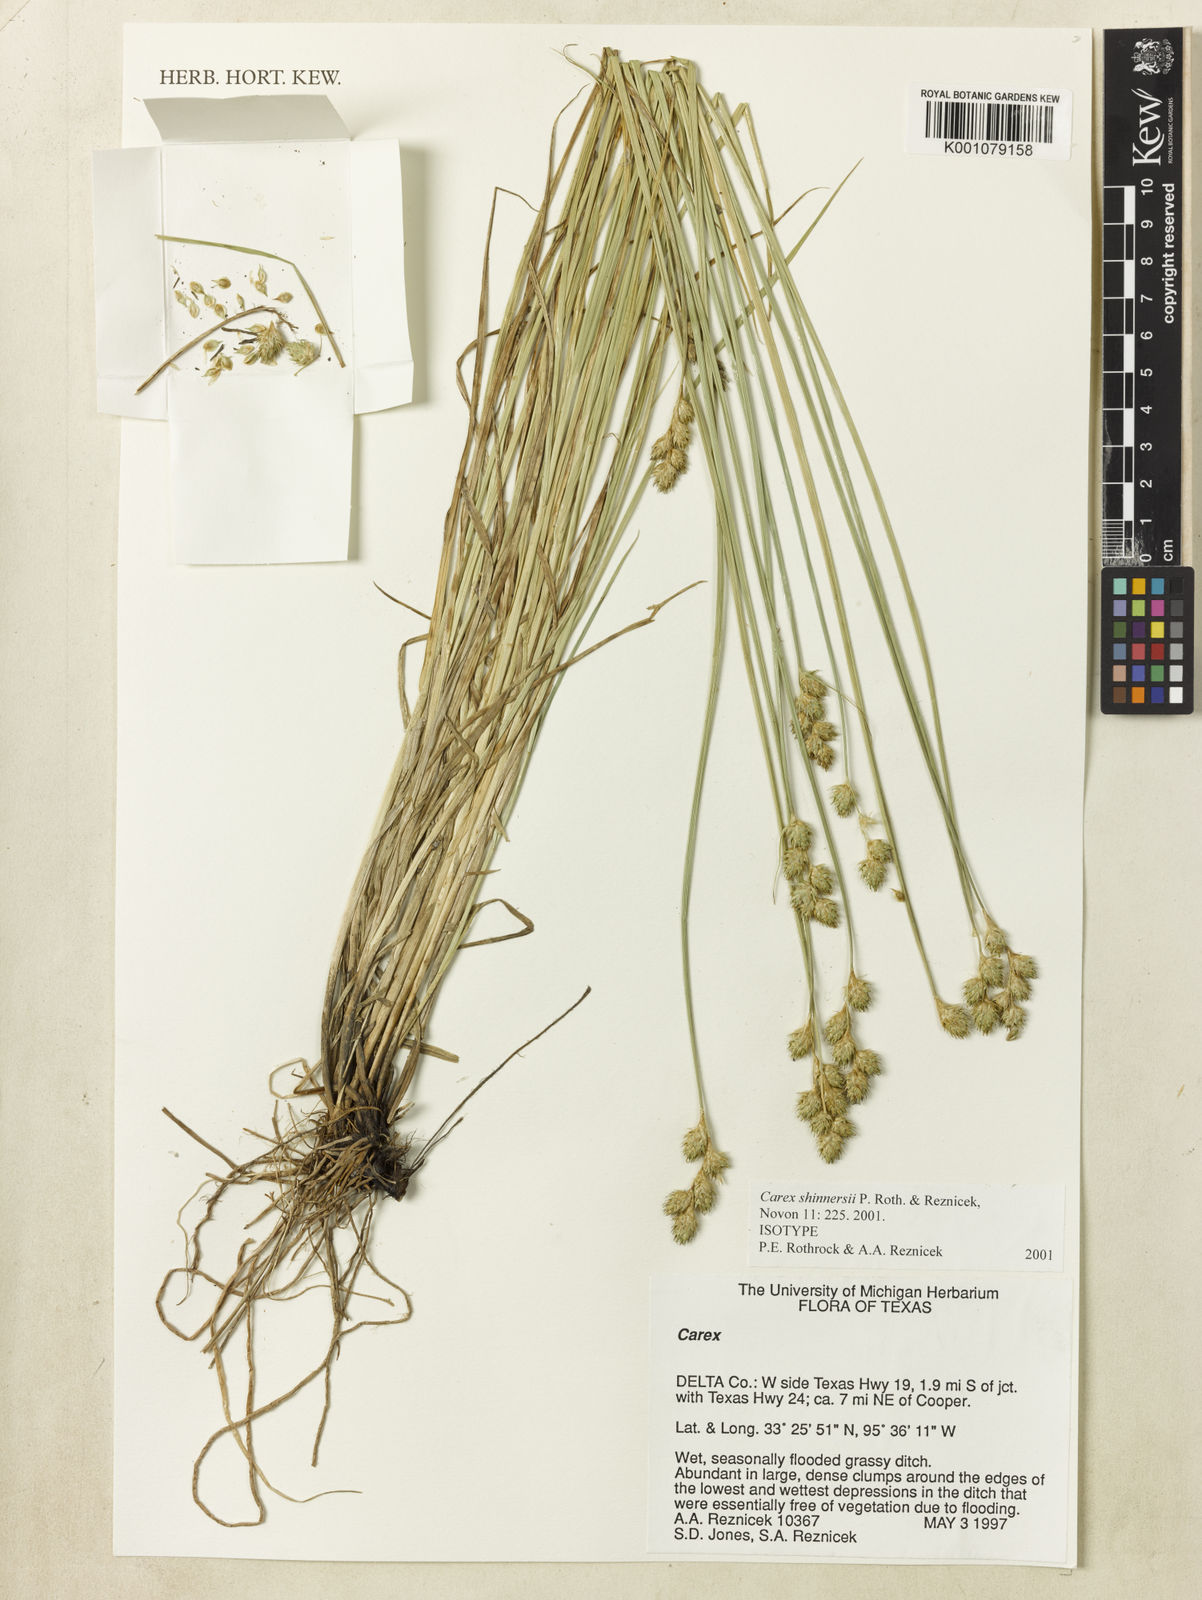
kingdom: Plantae
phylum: Tracheophyta
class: Liliopsida
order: Poales
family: Cyperaceae
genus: Carex
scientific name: Carex shinnersii
